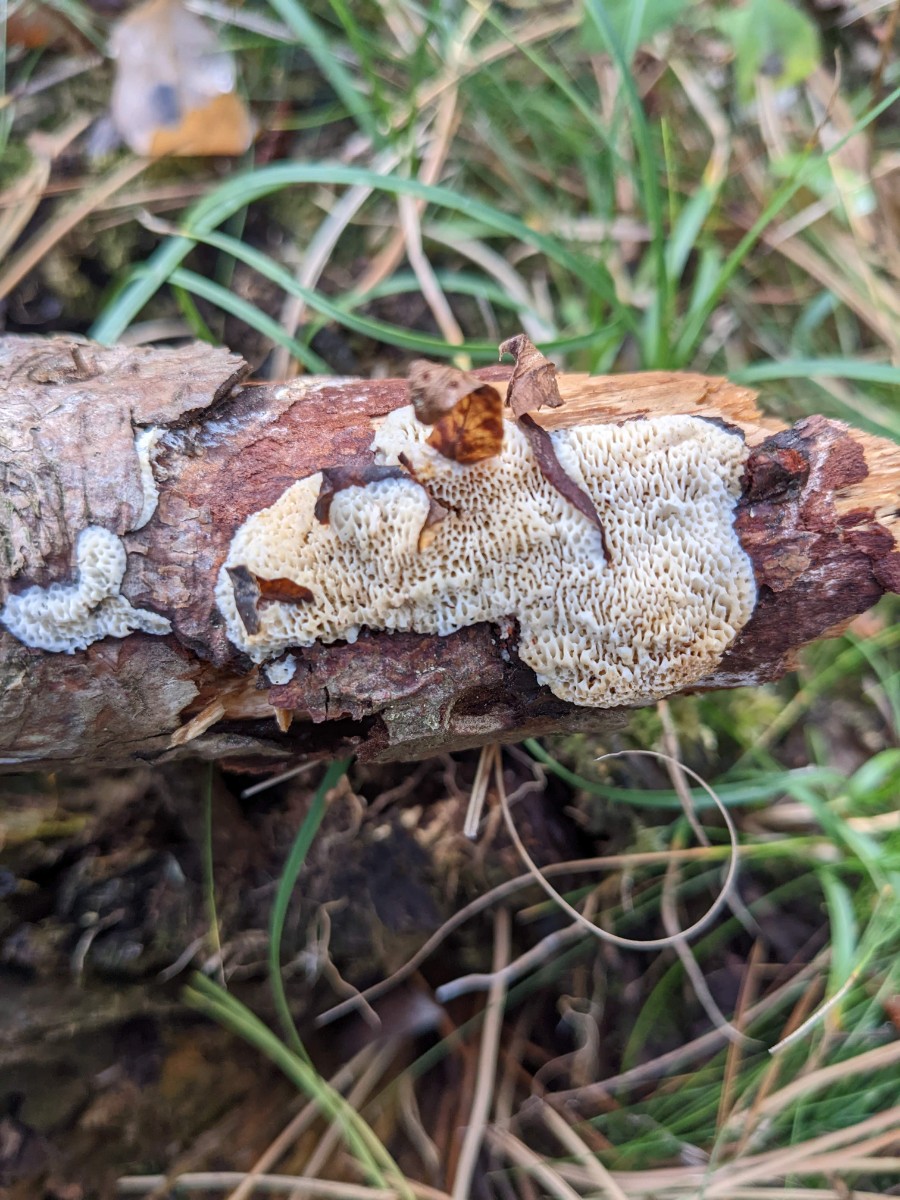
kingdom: Fungi
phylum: Basidiomycota
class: Agaricomycetes
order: Polyporales
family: Fomitopsidaceae
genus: Fomitopsis
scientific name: Fomitopsis
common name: fyrre-skiveporesvamp
